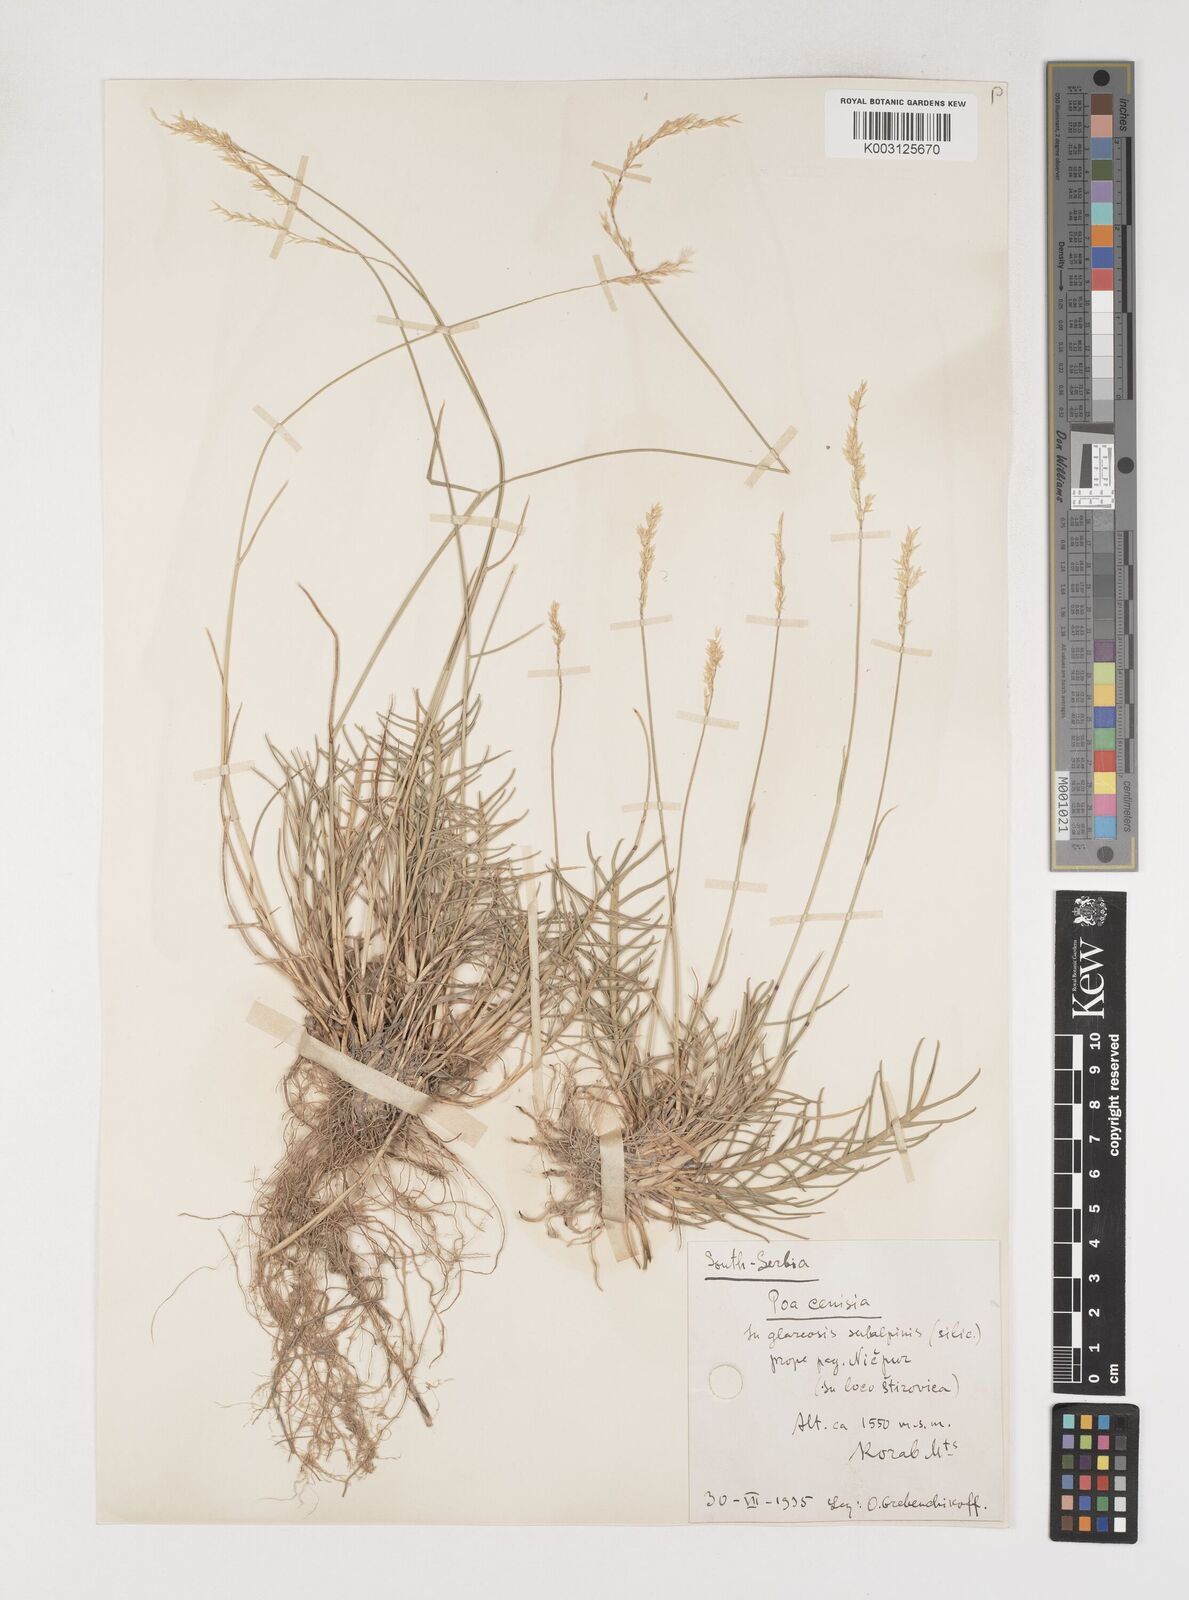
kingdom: Plantae
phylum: Tracheophyta
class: Liliopsida
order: Poales
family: Poaceae
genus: Poa
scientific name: Poa
